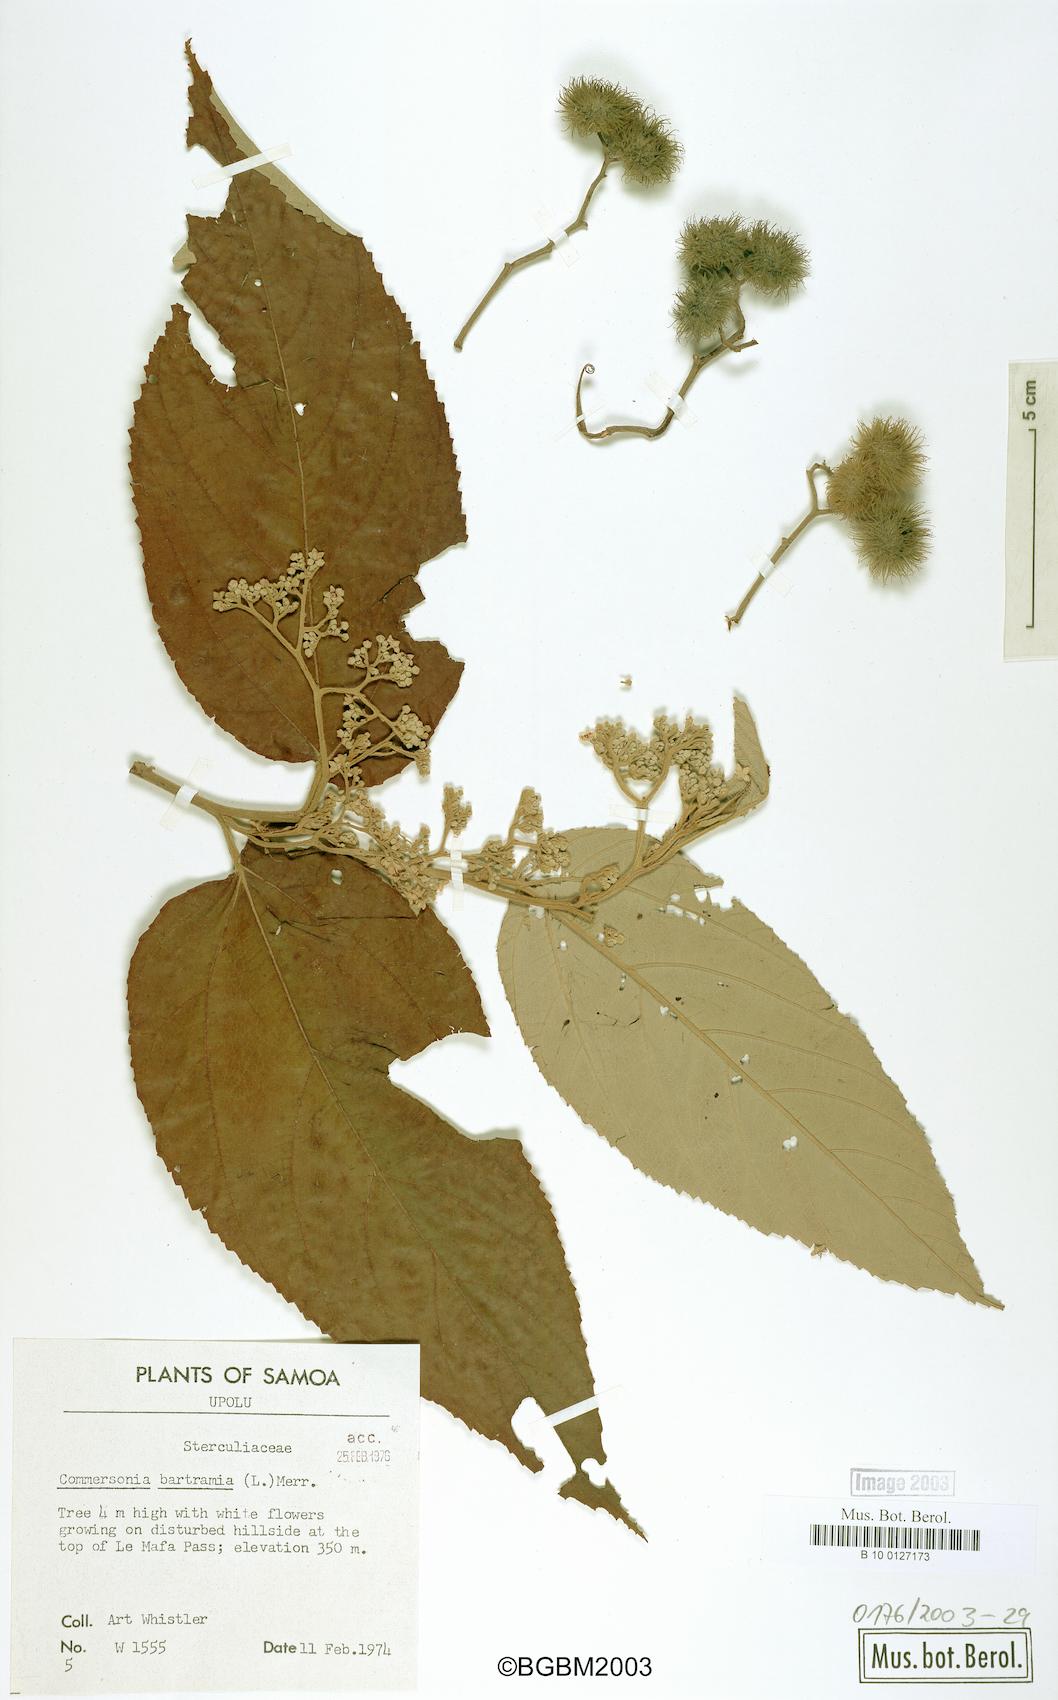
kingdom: Plantae
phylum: Tracheophyta
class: Magnoliopsida
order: Malvales
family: Malvaceae
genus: Commersonia
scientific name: Commersonia bartramia
